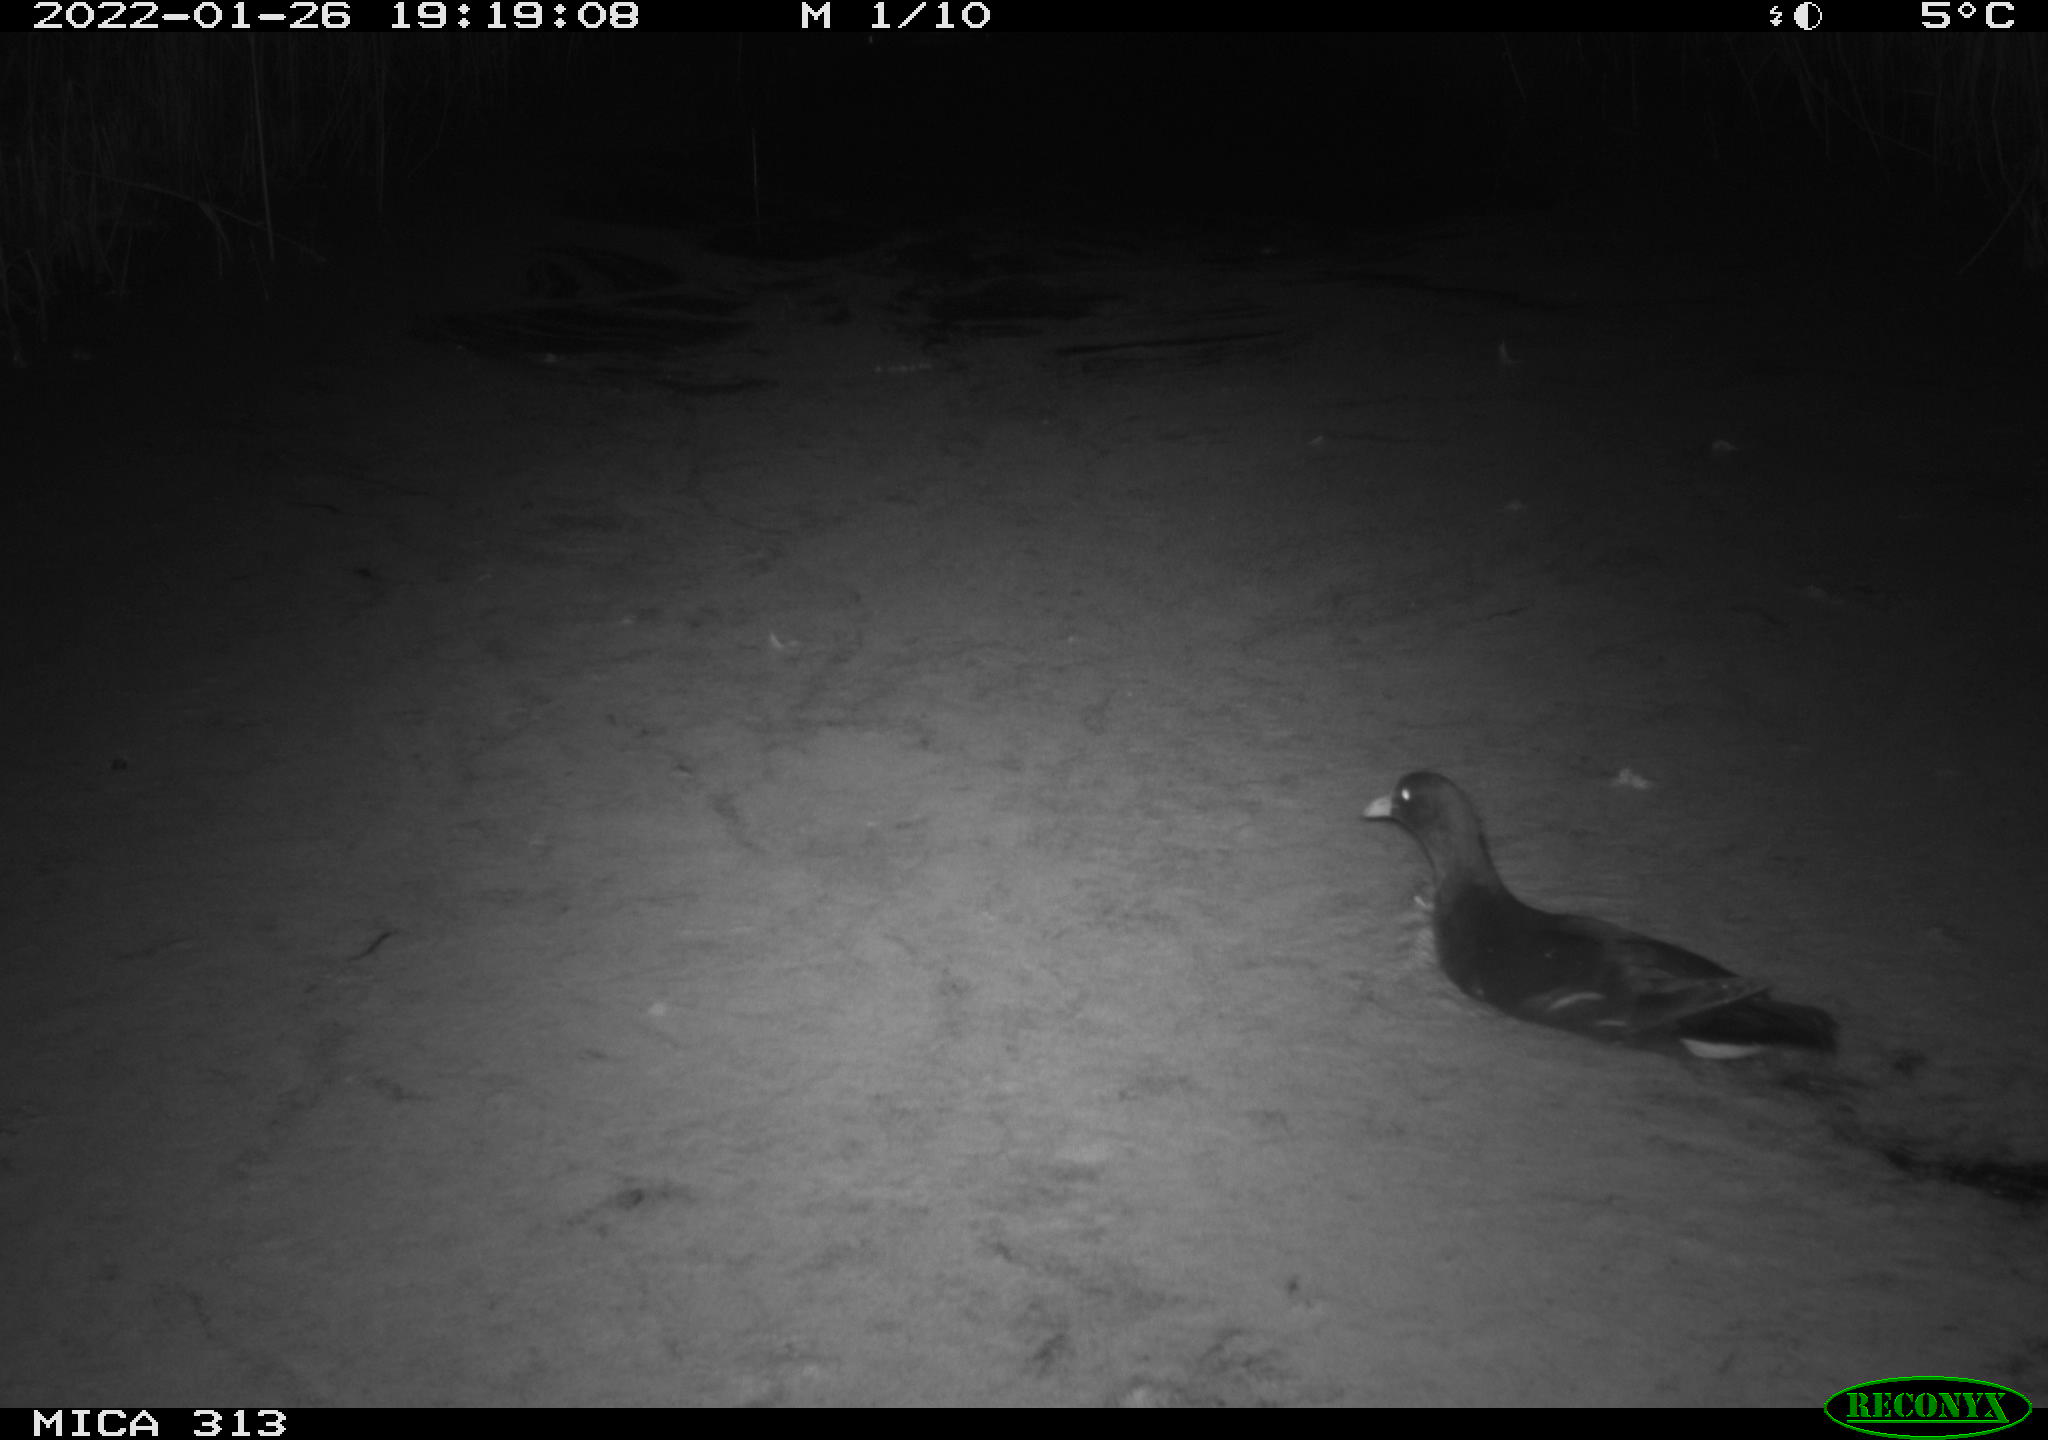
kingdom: Animalia
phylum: Chordata
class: Aves
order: Gruiformes
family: Rallidae
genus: Gallinula
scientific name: Gallinula chloropus
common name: Common moorhen
